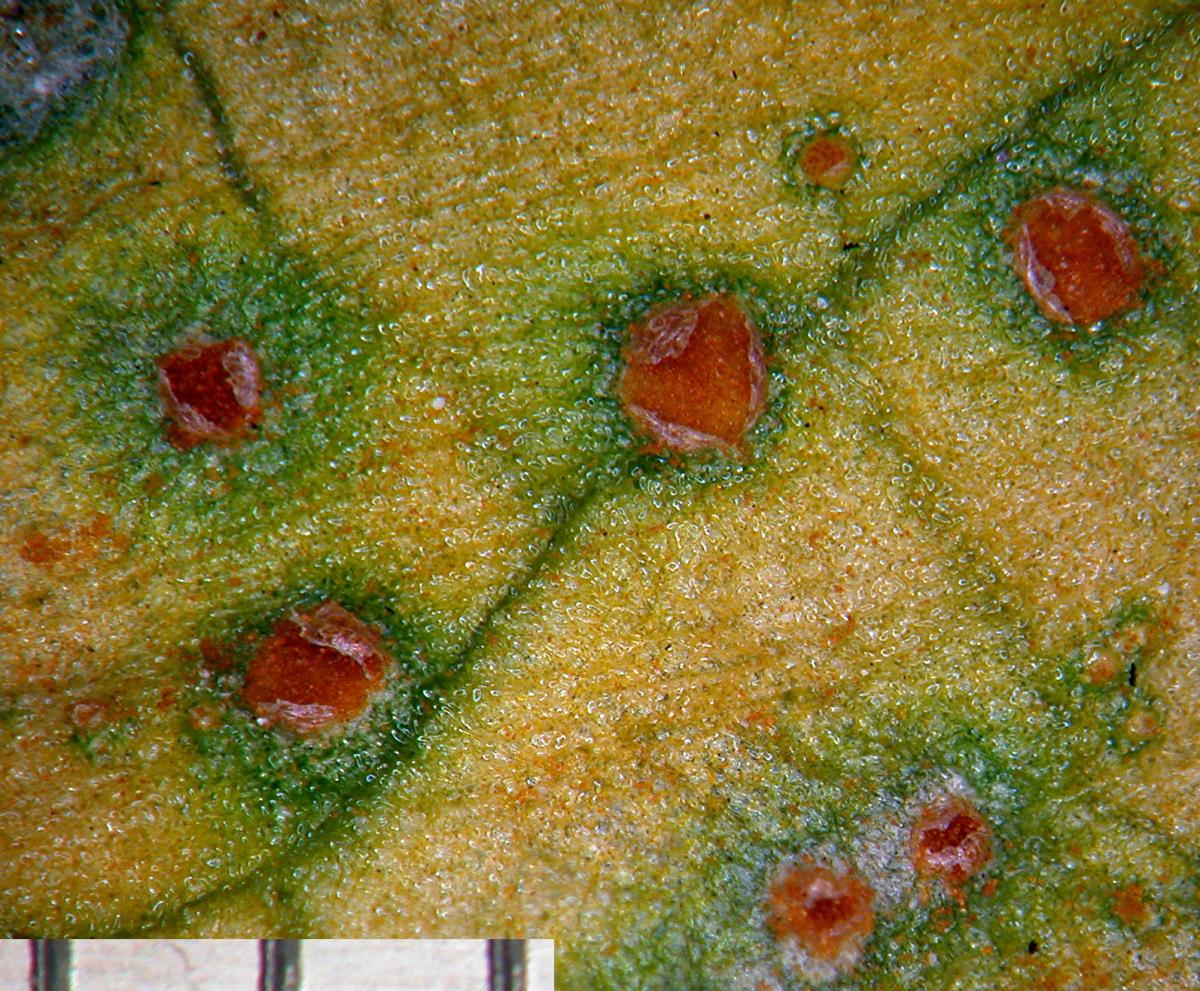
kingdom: Fungi
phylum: Basidiomycota
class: Pucciniomycetes
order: Pucciniales
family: Pucciniaceae
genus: Puccinia
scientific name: Puccinia otagensis
